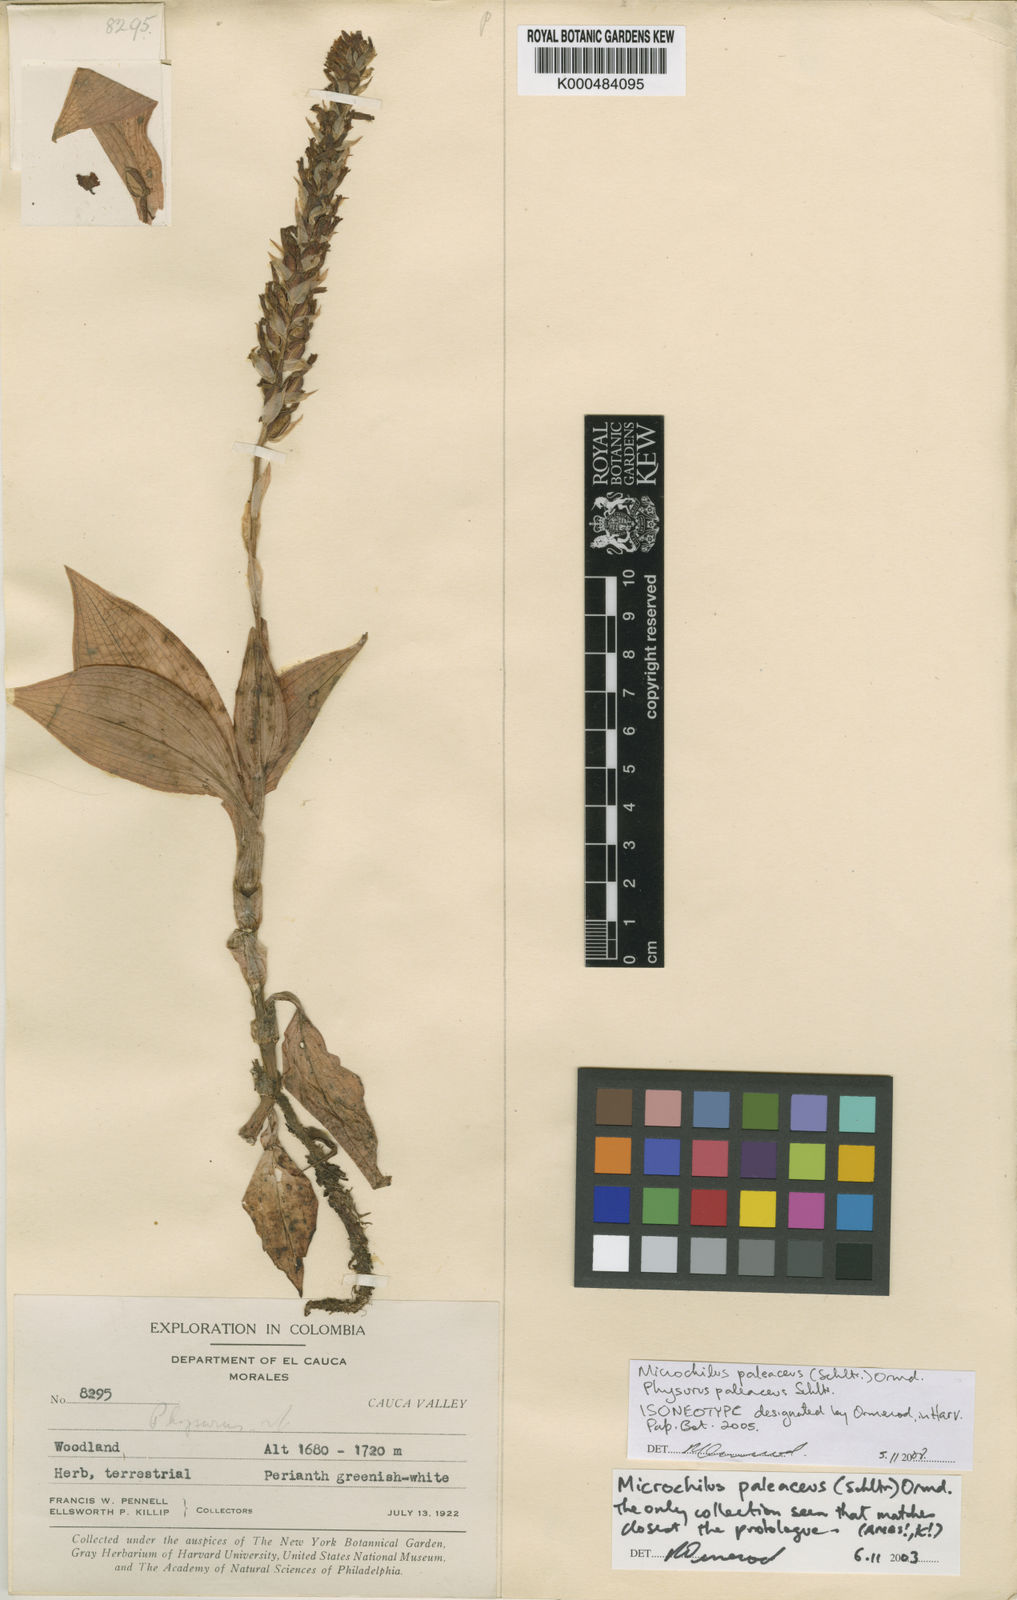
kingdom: Plantae
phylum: Tracheophyta
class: Liliopsida
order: Asparagales
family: Orchidaceae
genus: Microchilus
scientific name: Microchilus paleaceus
